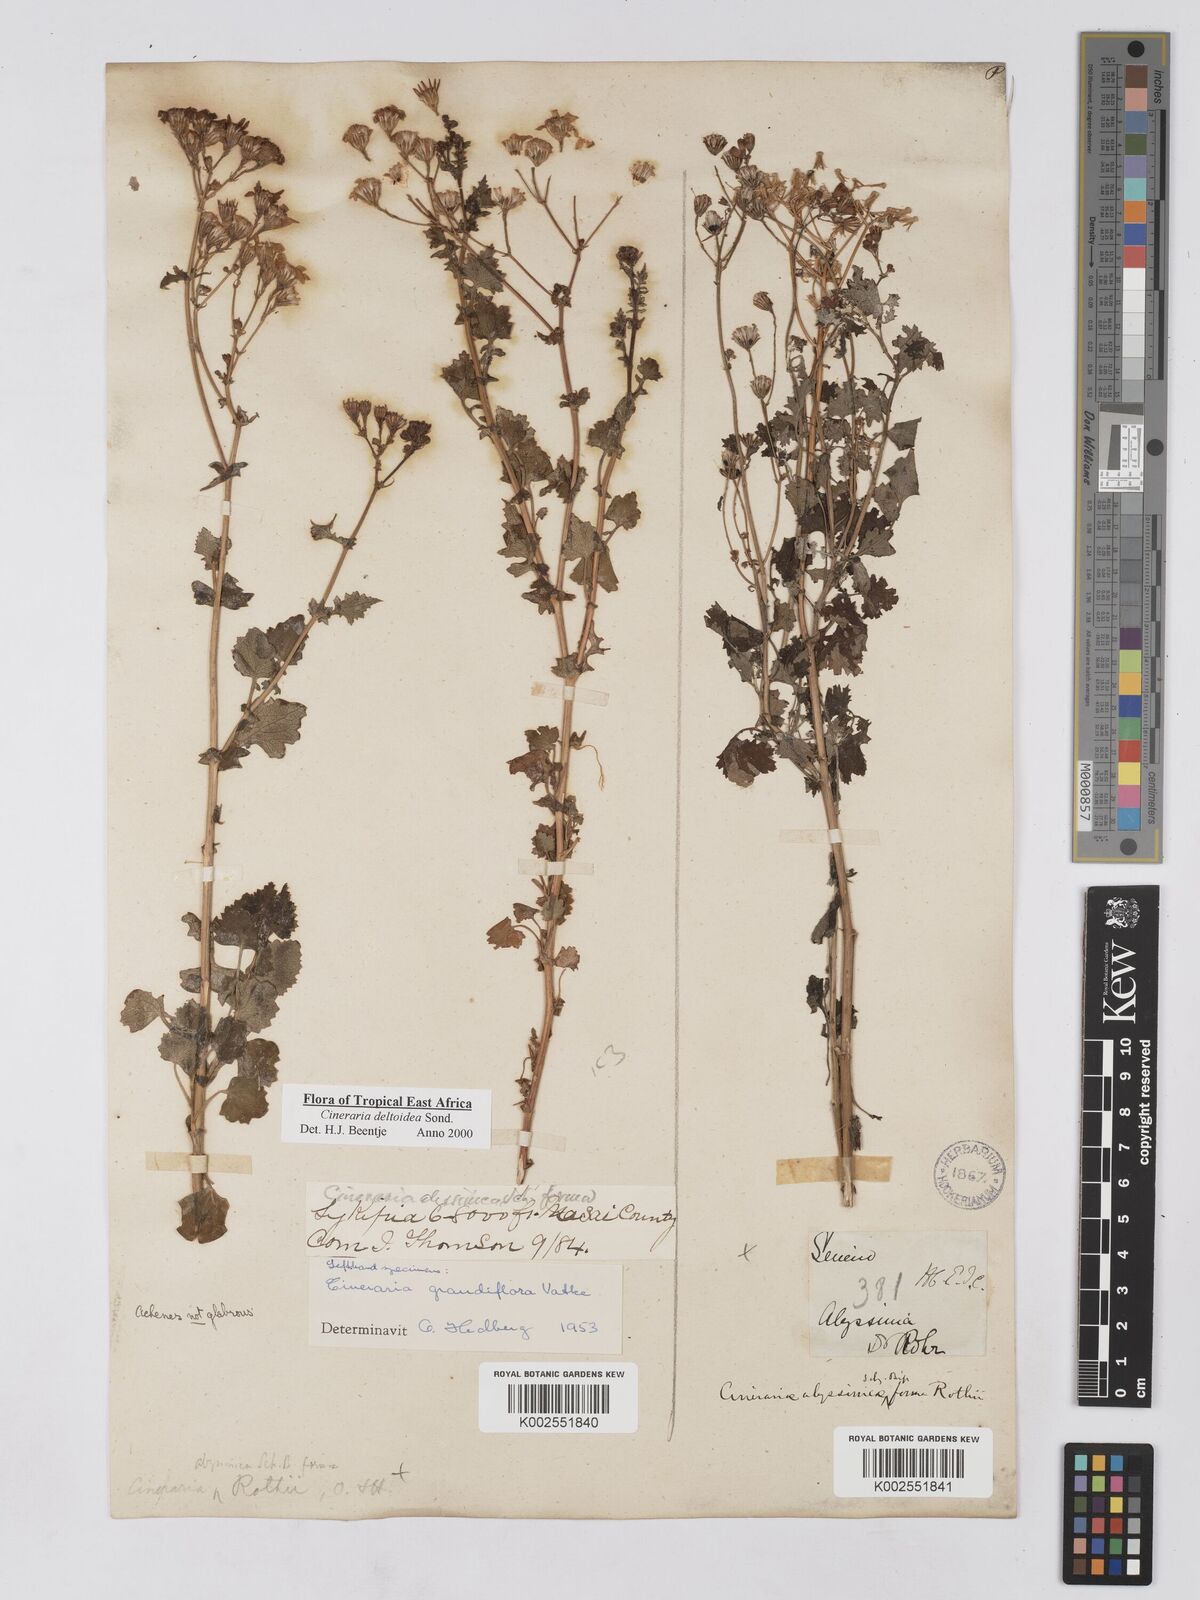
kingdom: Plantae
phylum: Tracheophyta
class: Magnoliopsida
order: Asterales
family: Asteraceae
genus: Cineraria
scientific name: Cineraria deltoidea
